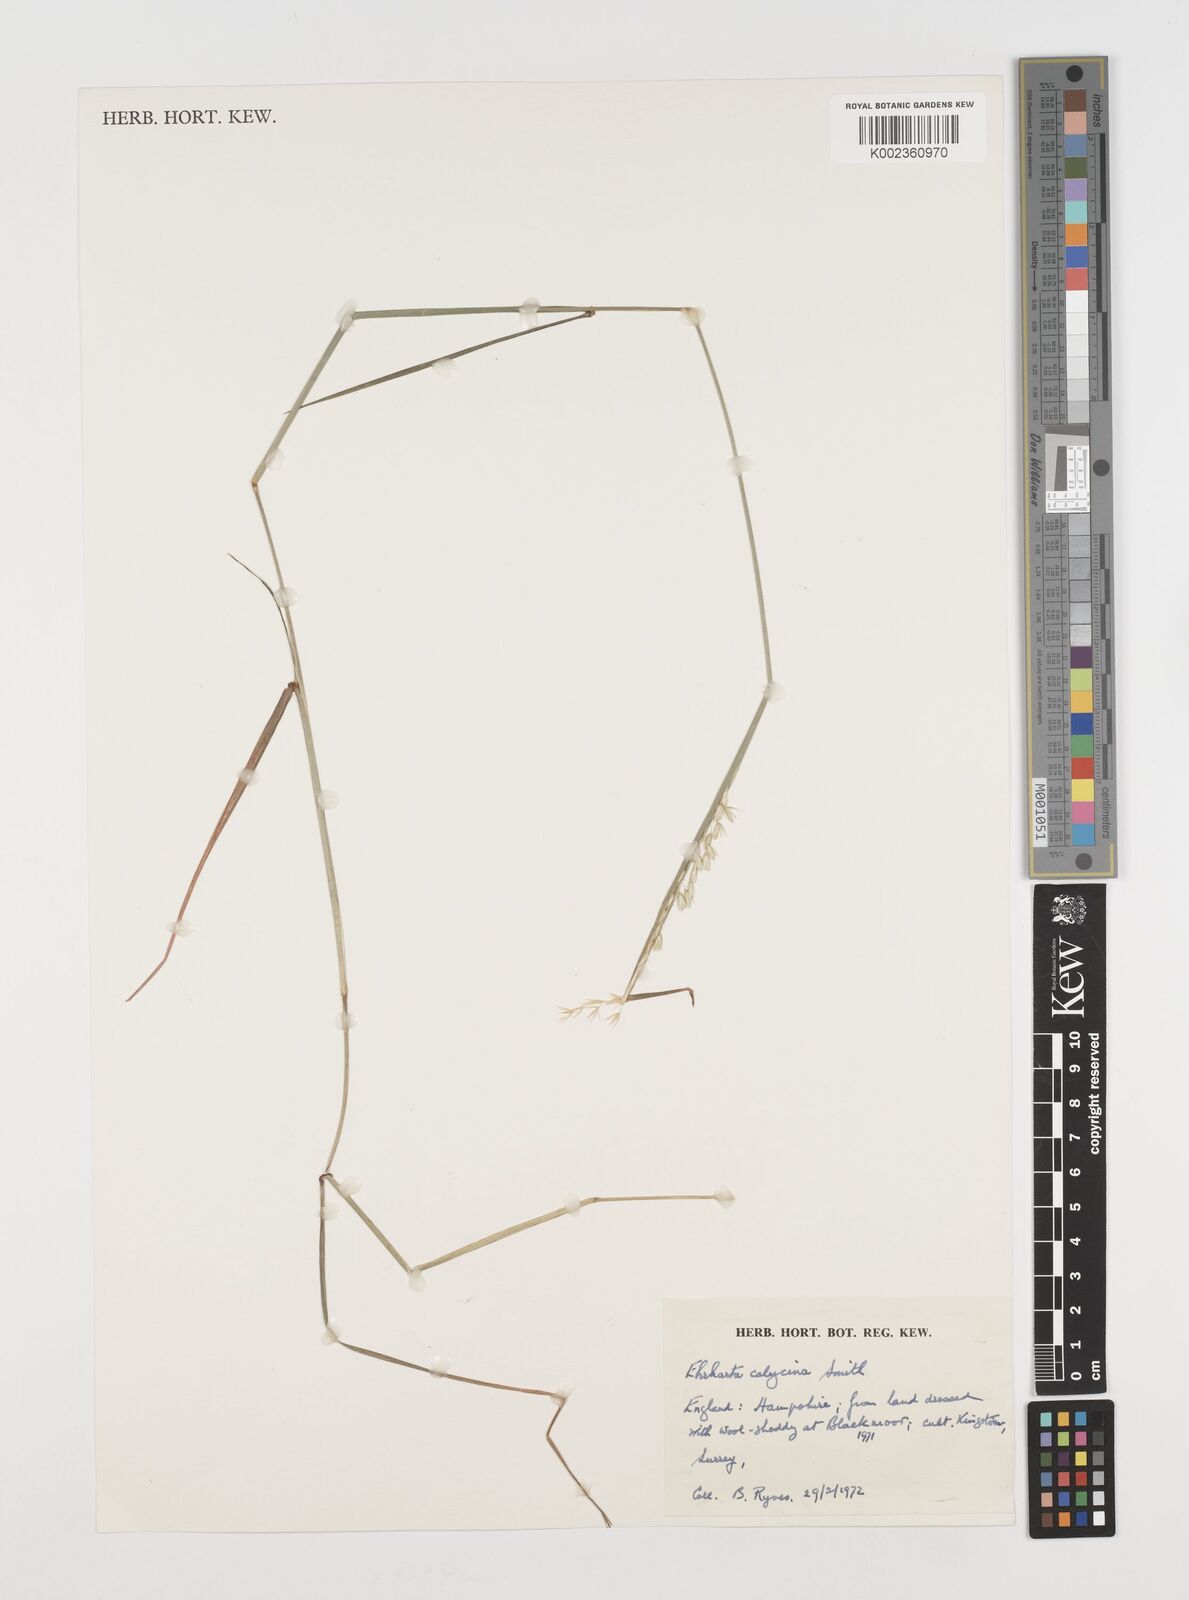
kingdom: Plantae
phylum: Tracheophyta
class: Liliopsida
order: Poales
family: Poaceae
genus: Ehrharta
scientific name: Ehrharta calycina
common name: Perennial veldtgrass
